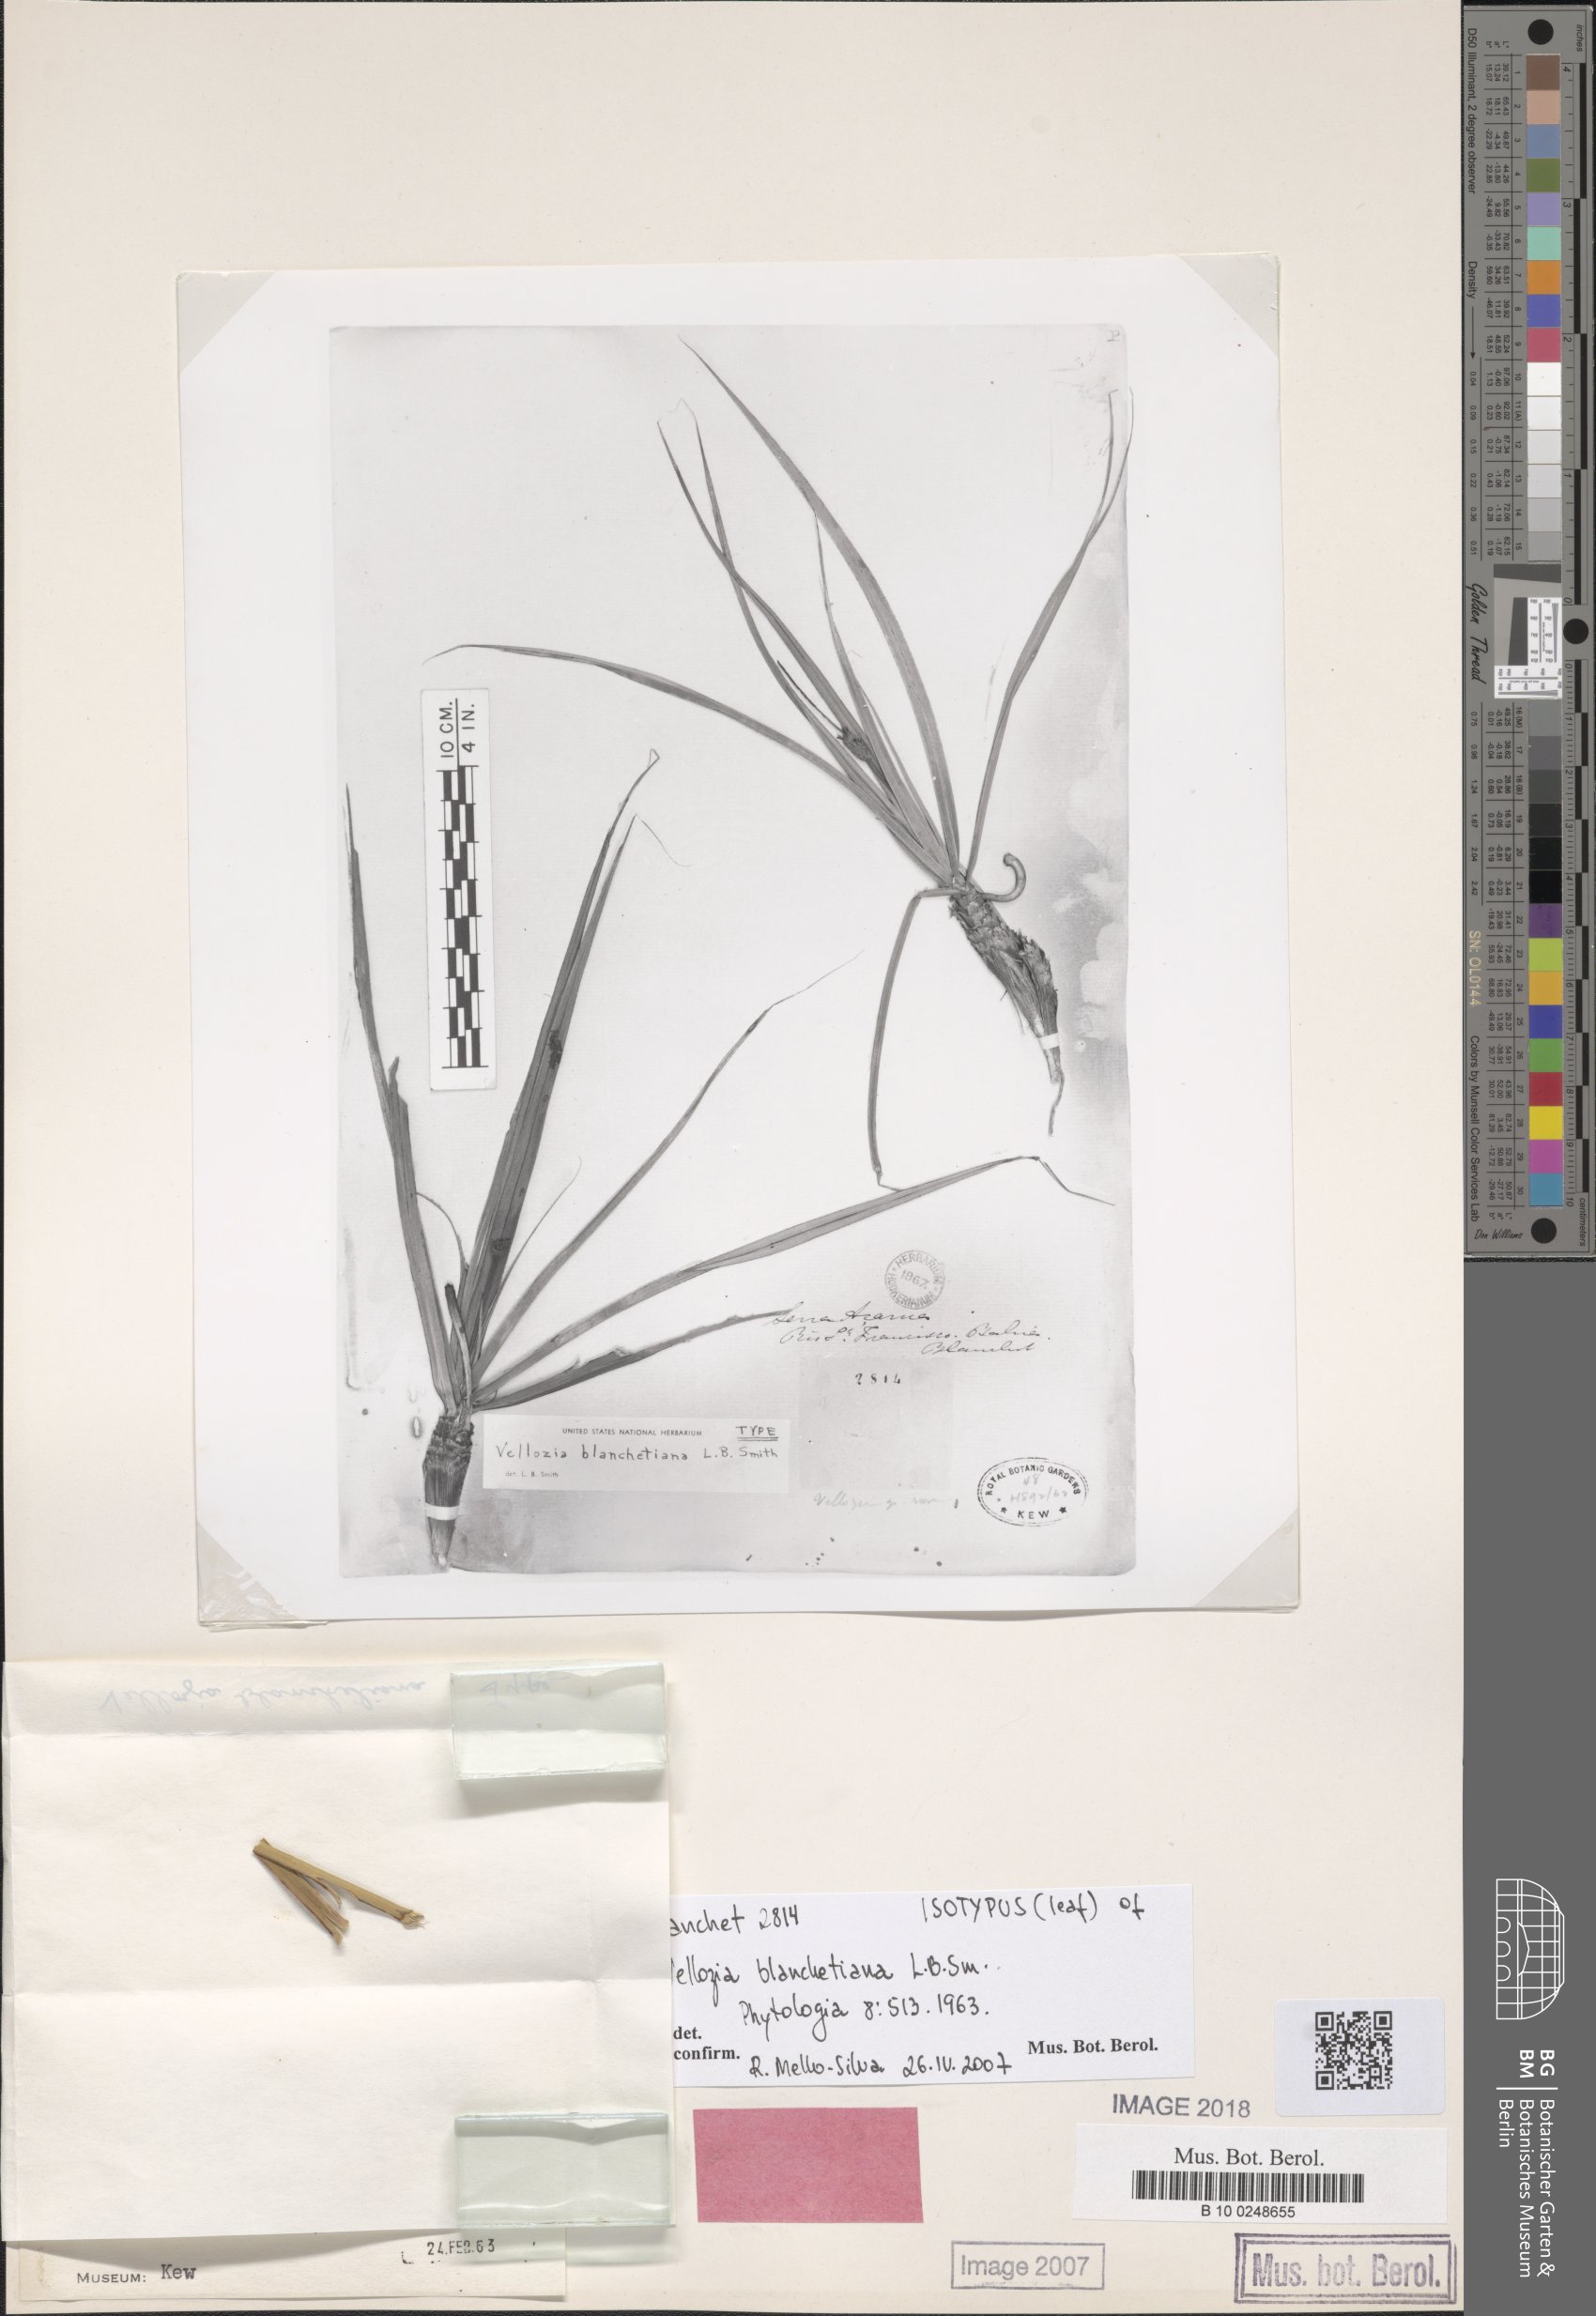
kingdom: Plantae
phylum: Tracheophyta
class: Liliopsida
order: Pandanales
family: Velloziaceae
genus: Vellozia
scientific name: Vellozia blanchetiana
